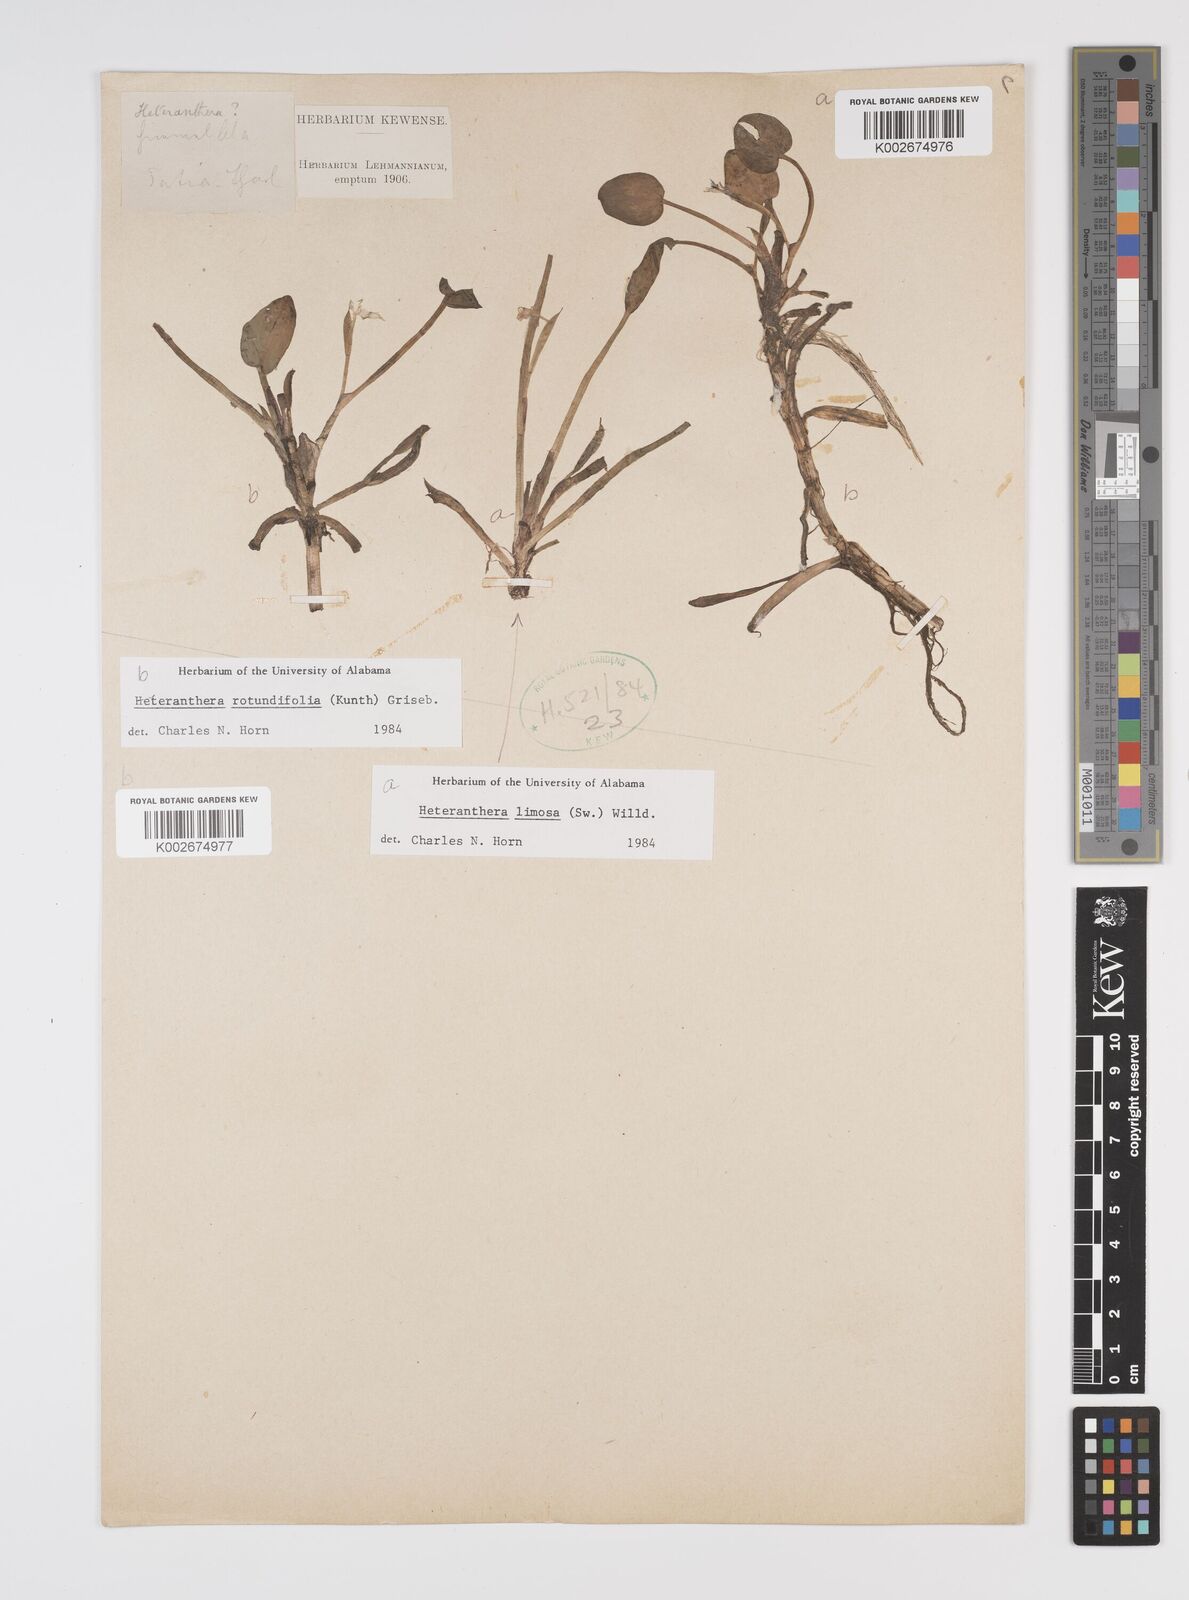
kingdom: Plantae
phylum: Tracheophyta
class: Liliopsida
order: Commelinales
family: Pontederiaceae
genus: Heteranthera
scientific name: Heteranthera rotundifolia
